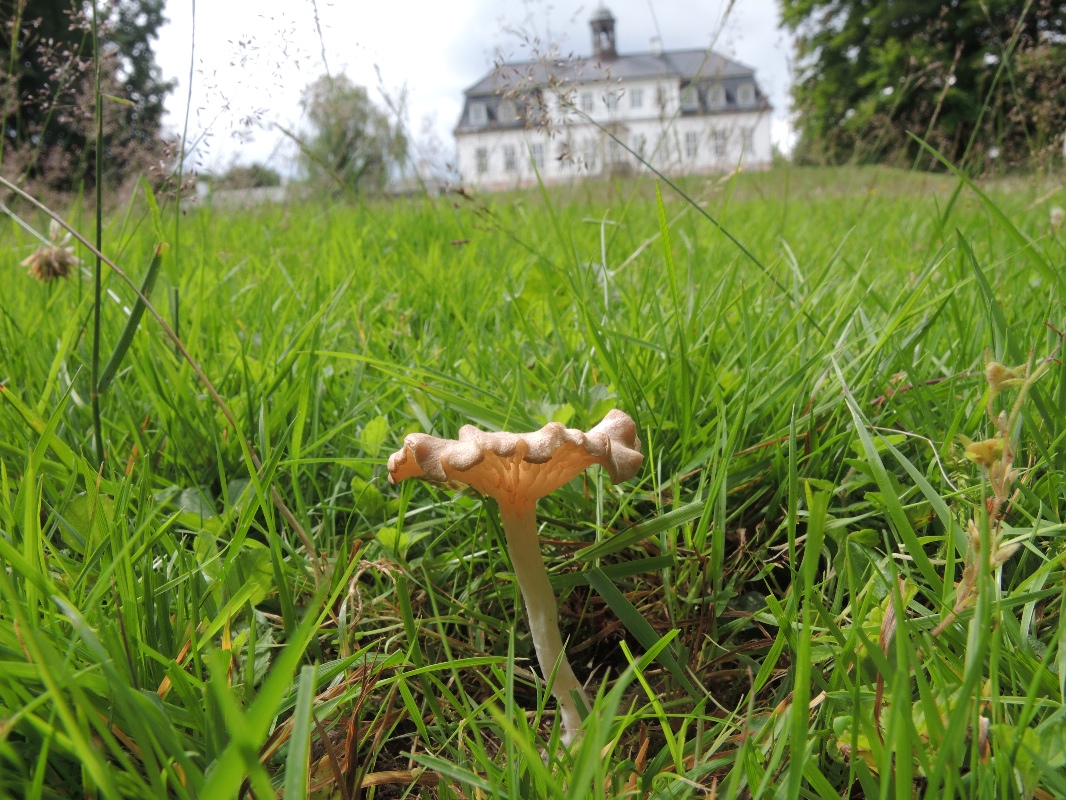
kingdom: Fungi
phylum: Basidiomycota
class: Agaricomycetes
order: Agaricales
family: Entolomataceae
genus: Entoloma
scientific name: Entoloma neglectum
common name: bleg rødblad
